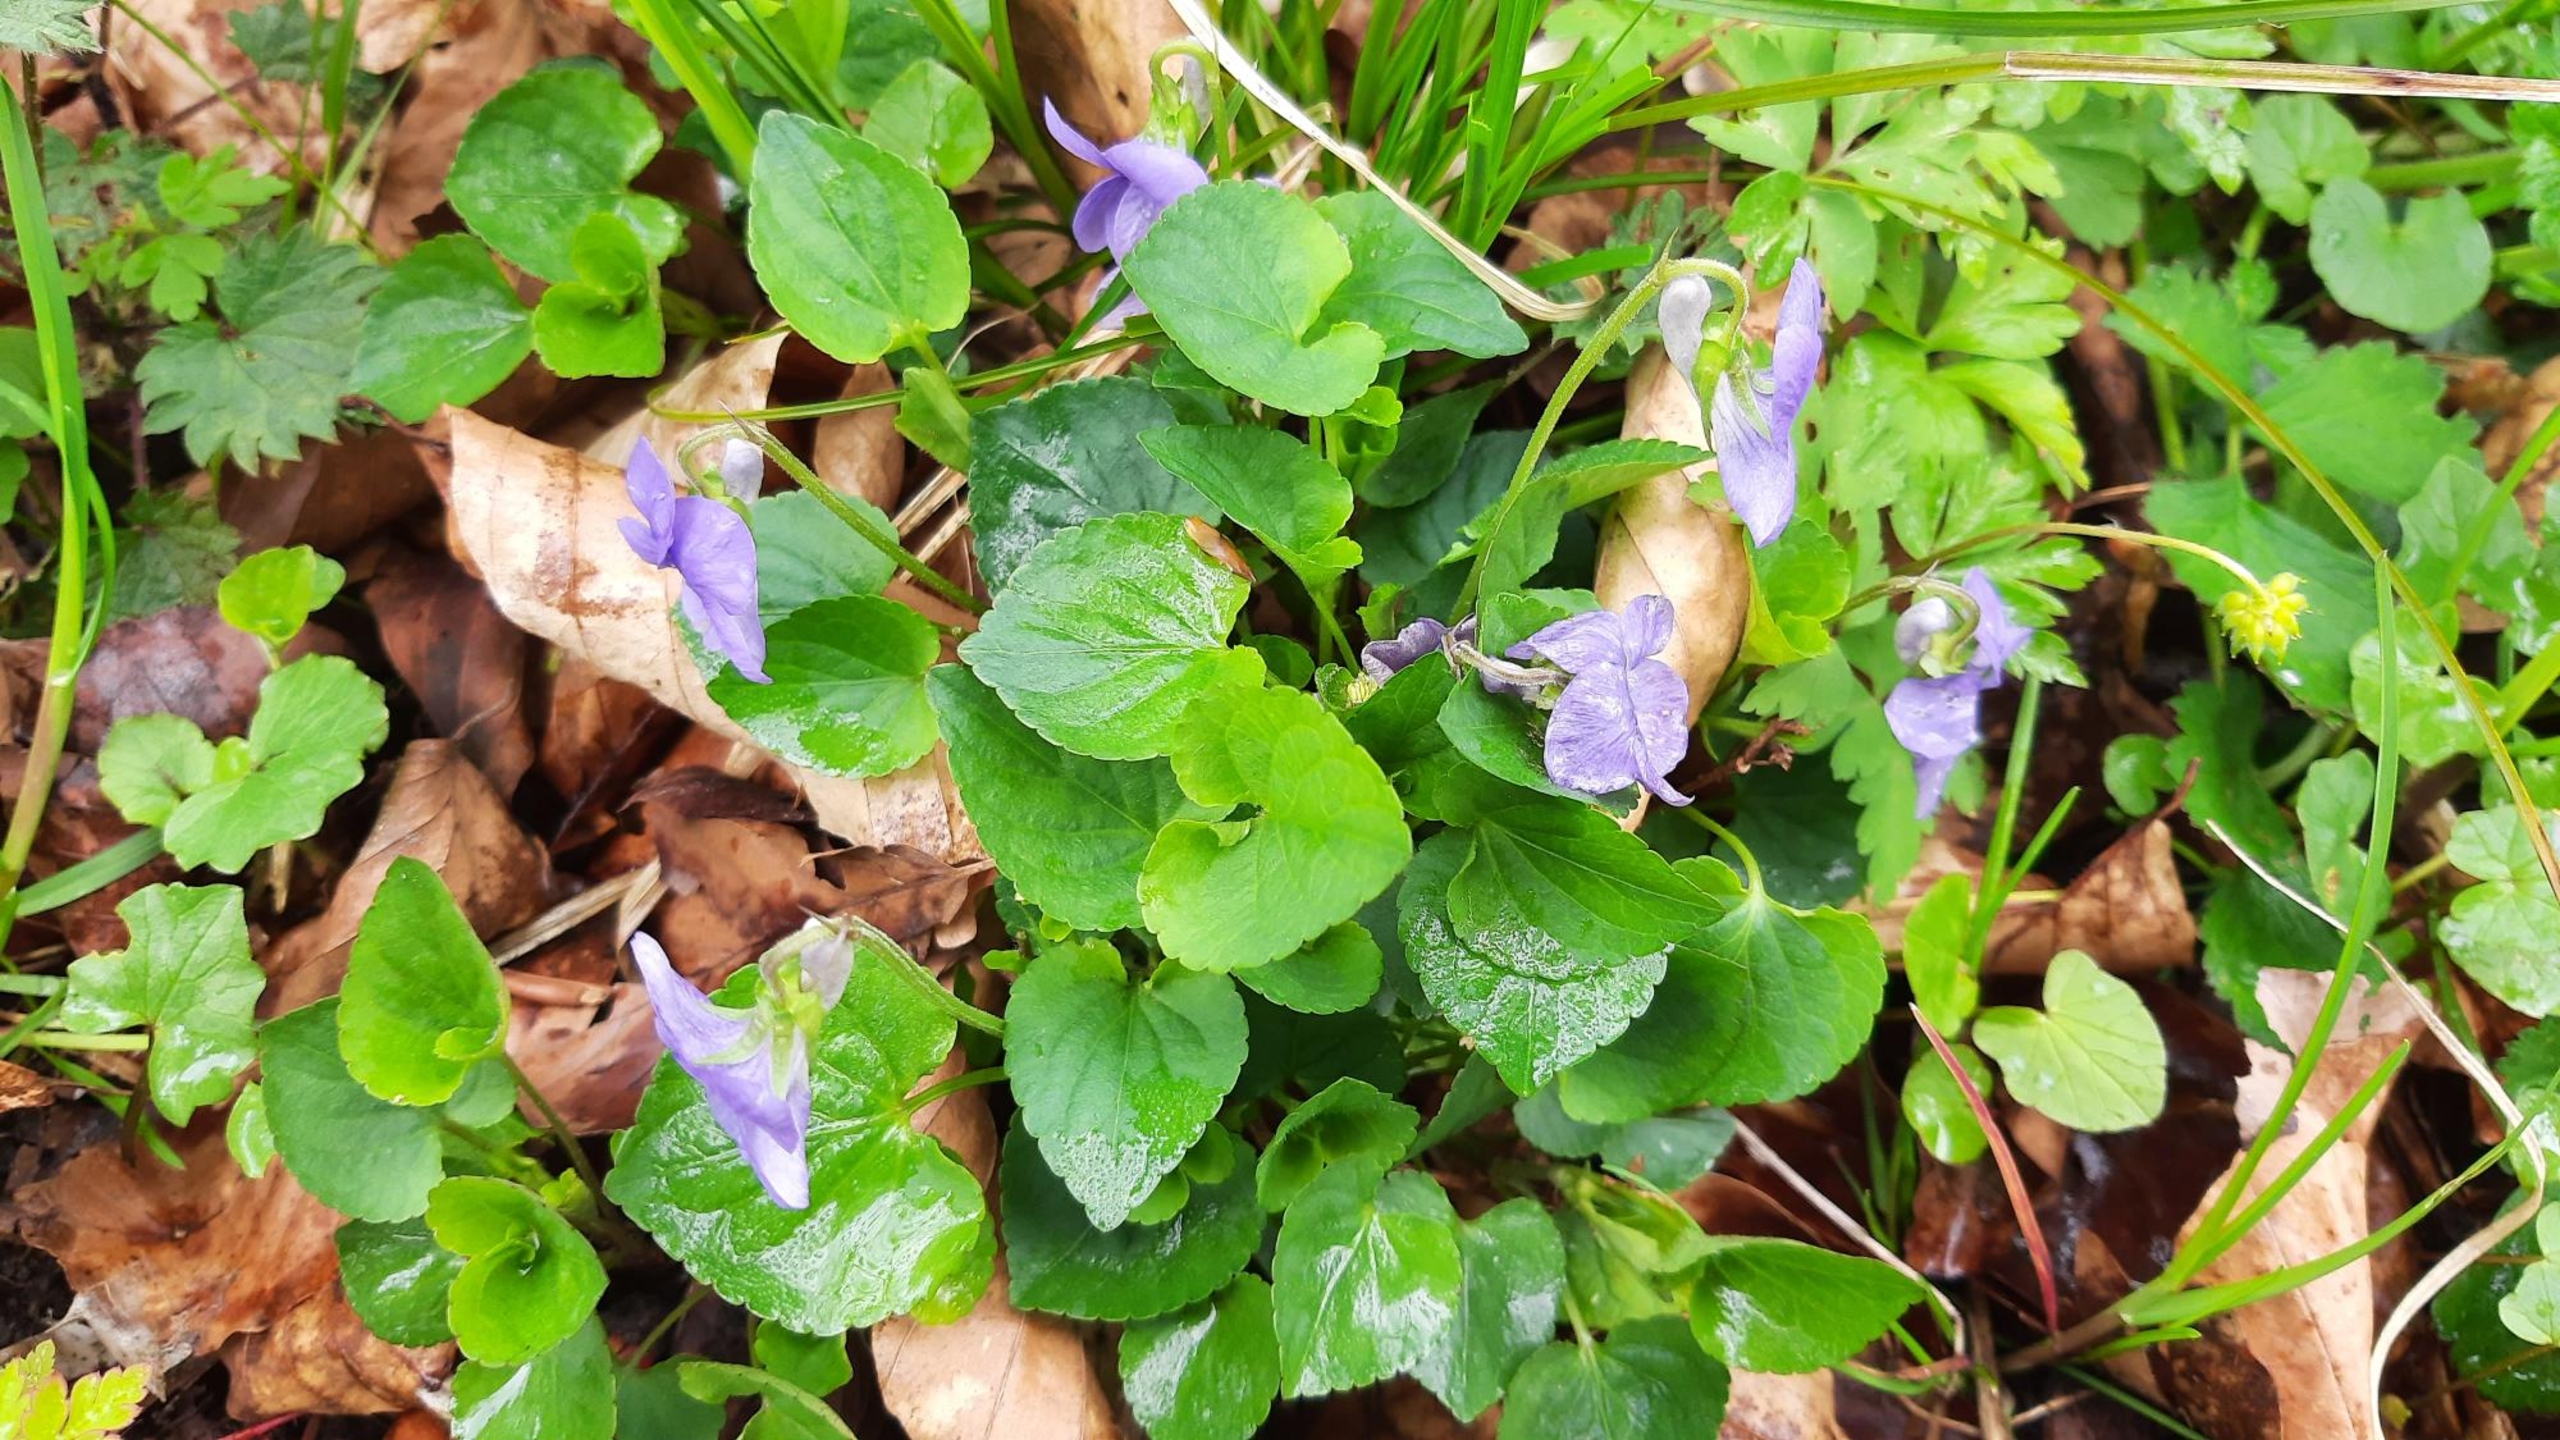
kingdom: Plantae
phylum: Tracheophyta
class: Magnoliopsida
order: Malpighiales
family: Violaceae
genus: Viola
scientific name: Viola riviniana
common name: Krat-viol
